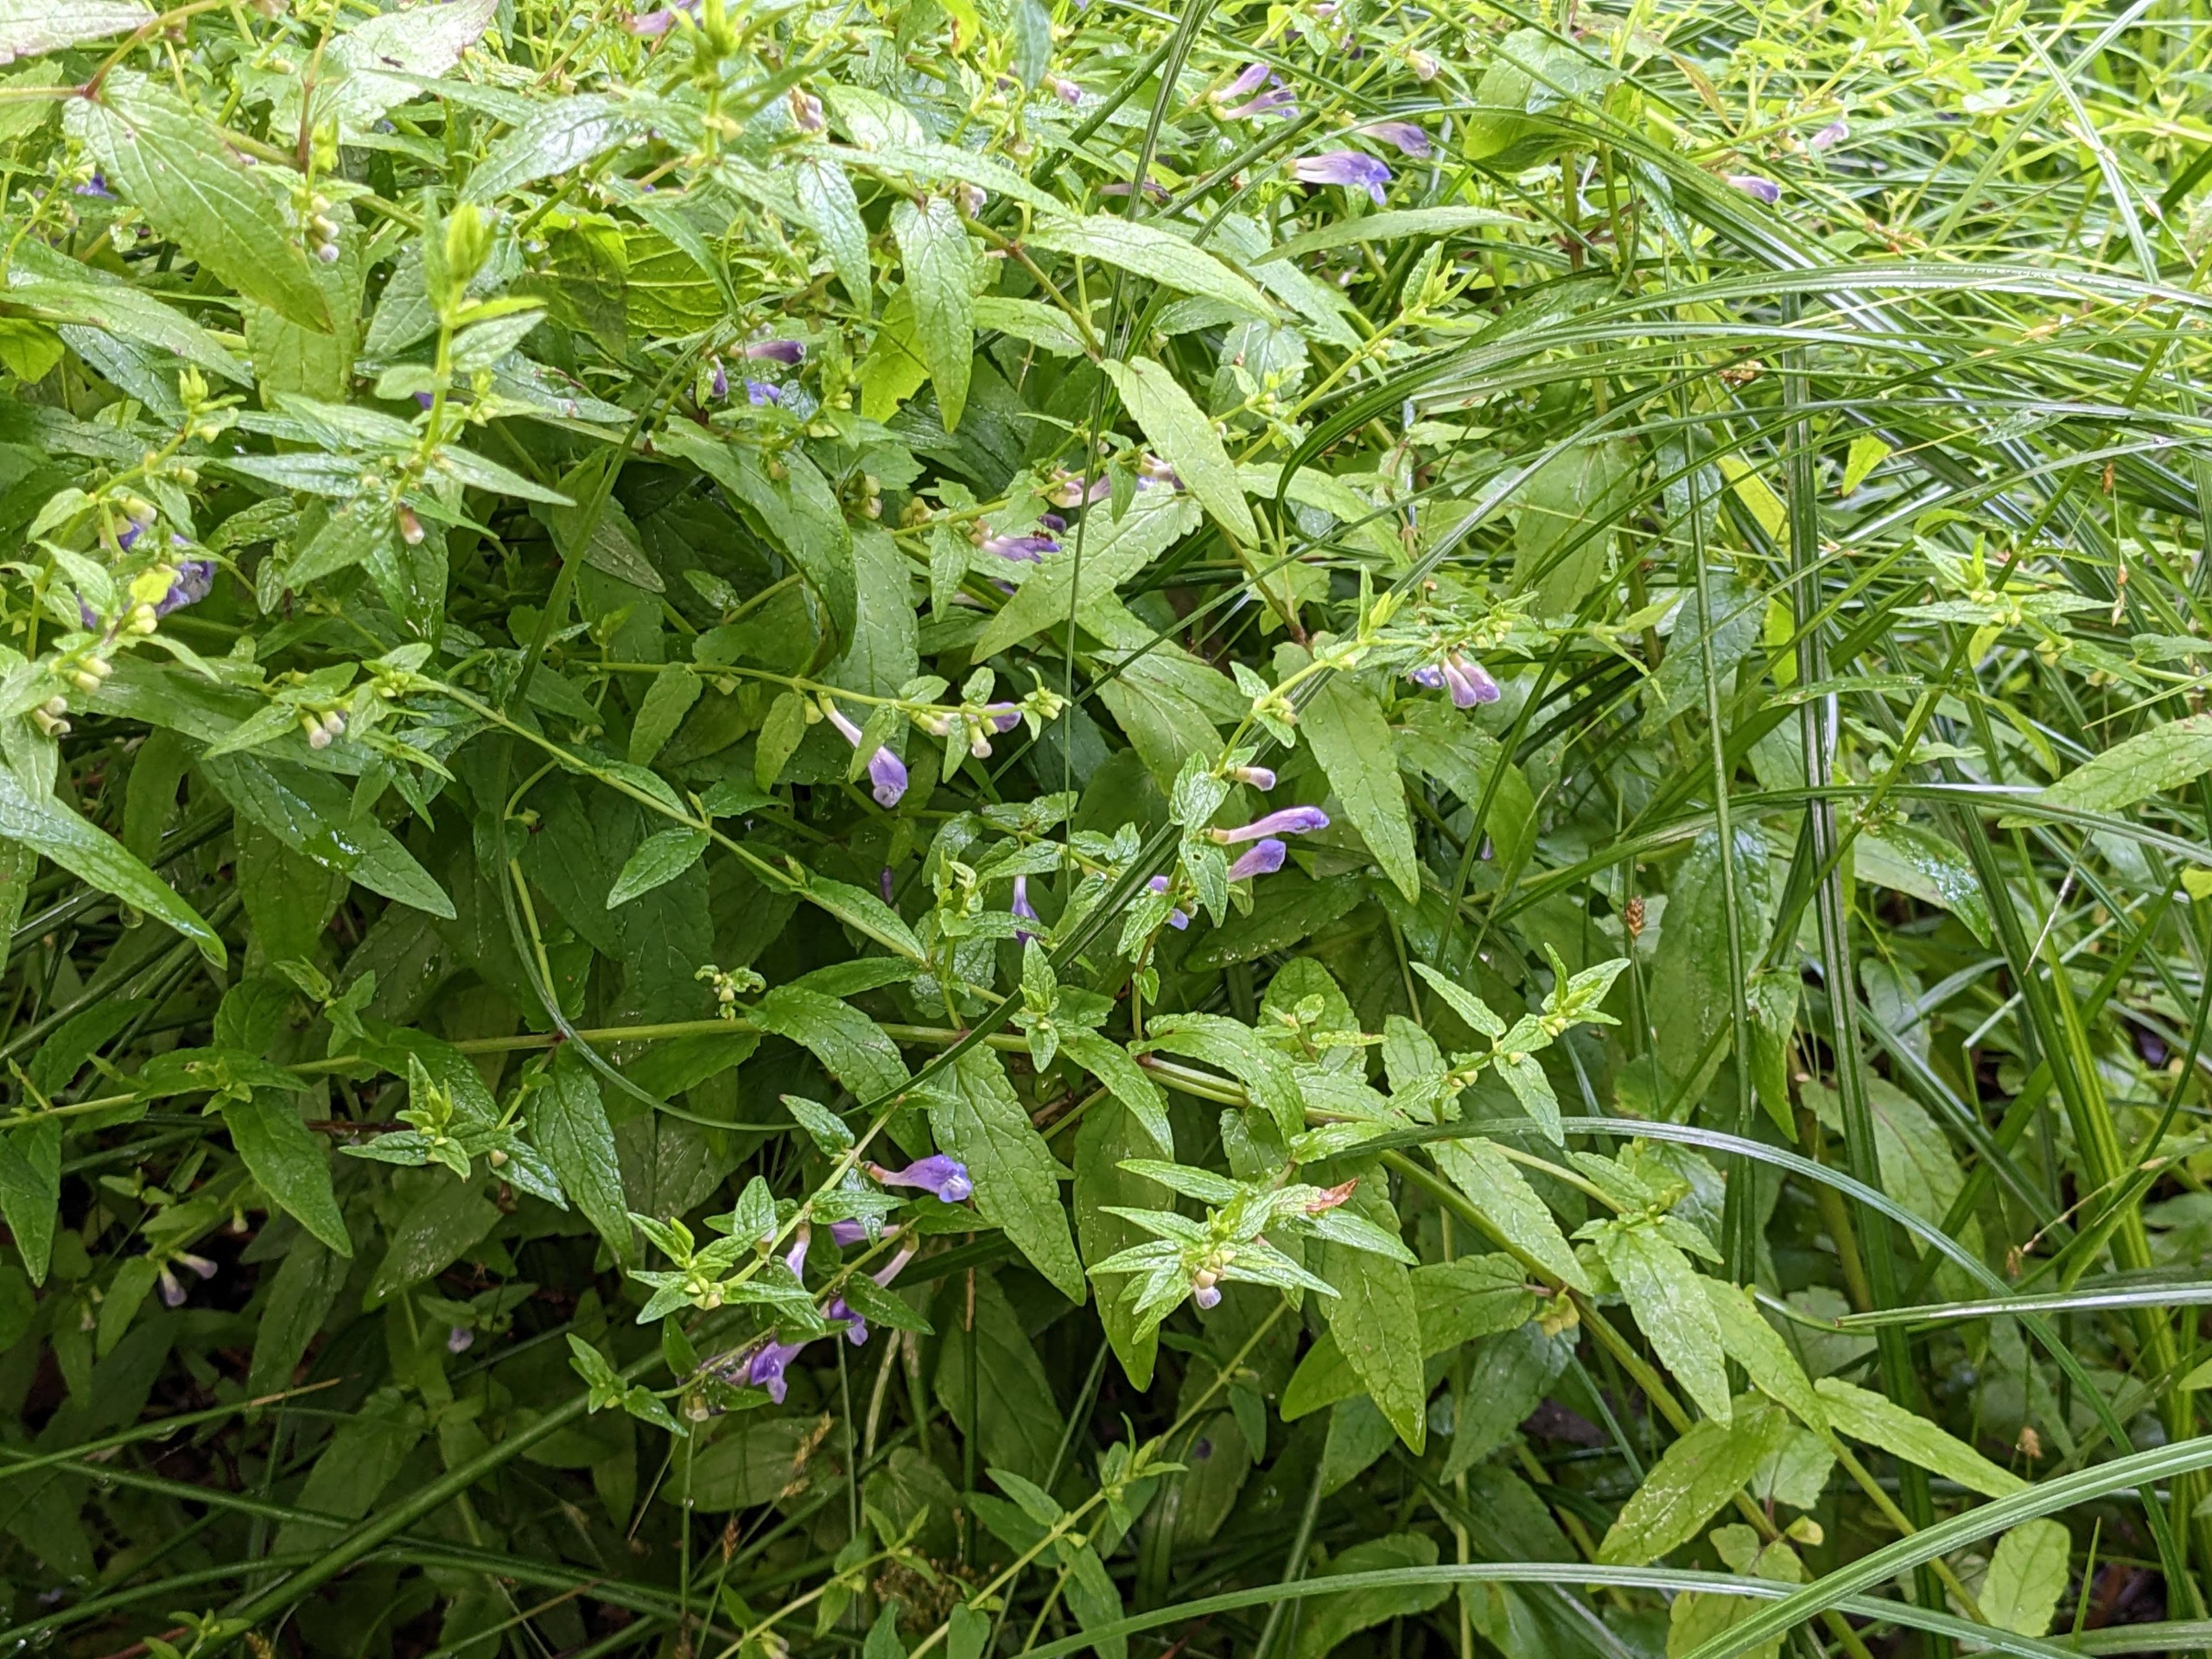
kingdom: Plantae
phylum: Tracheophyta
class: Magnoliopsida
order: Lamiales
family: Lamiaceae
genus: Scutellaria
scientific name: Scutellaria galericulata
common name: Almindelig skjolddrager
